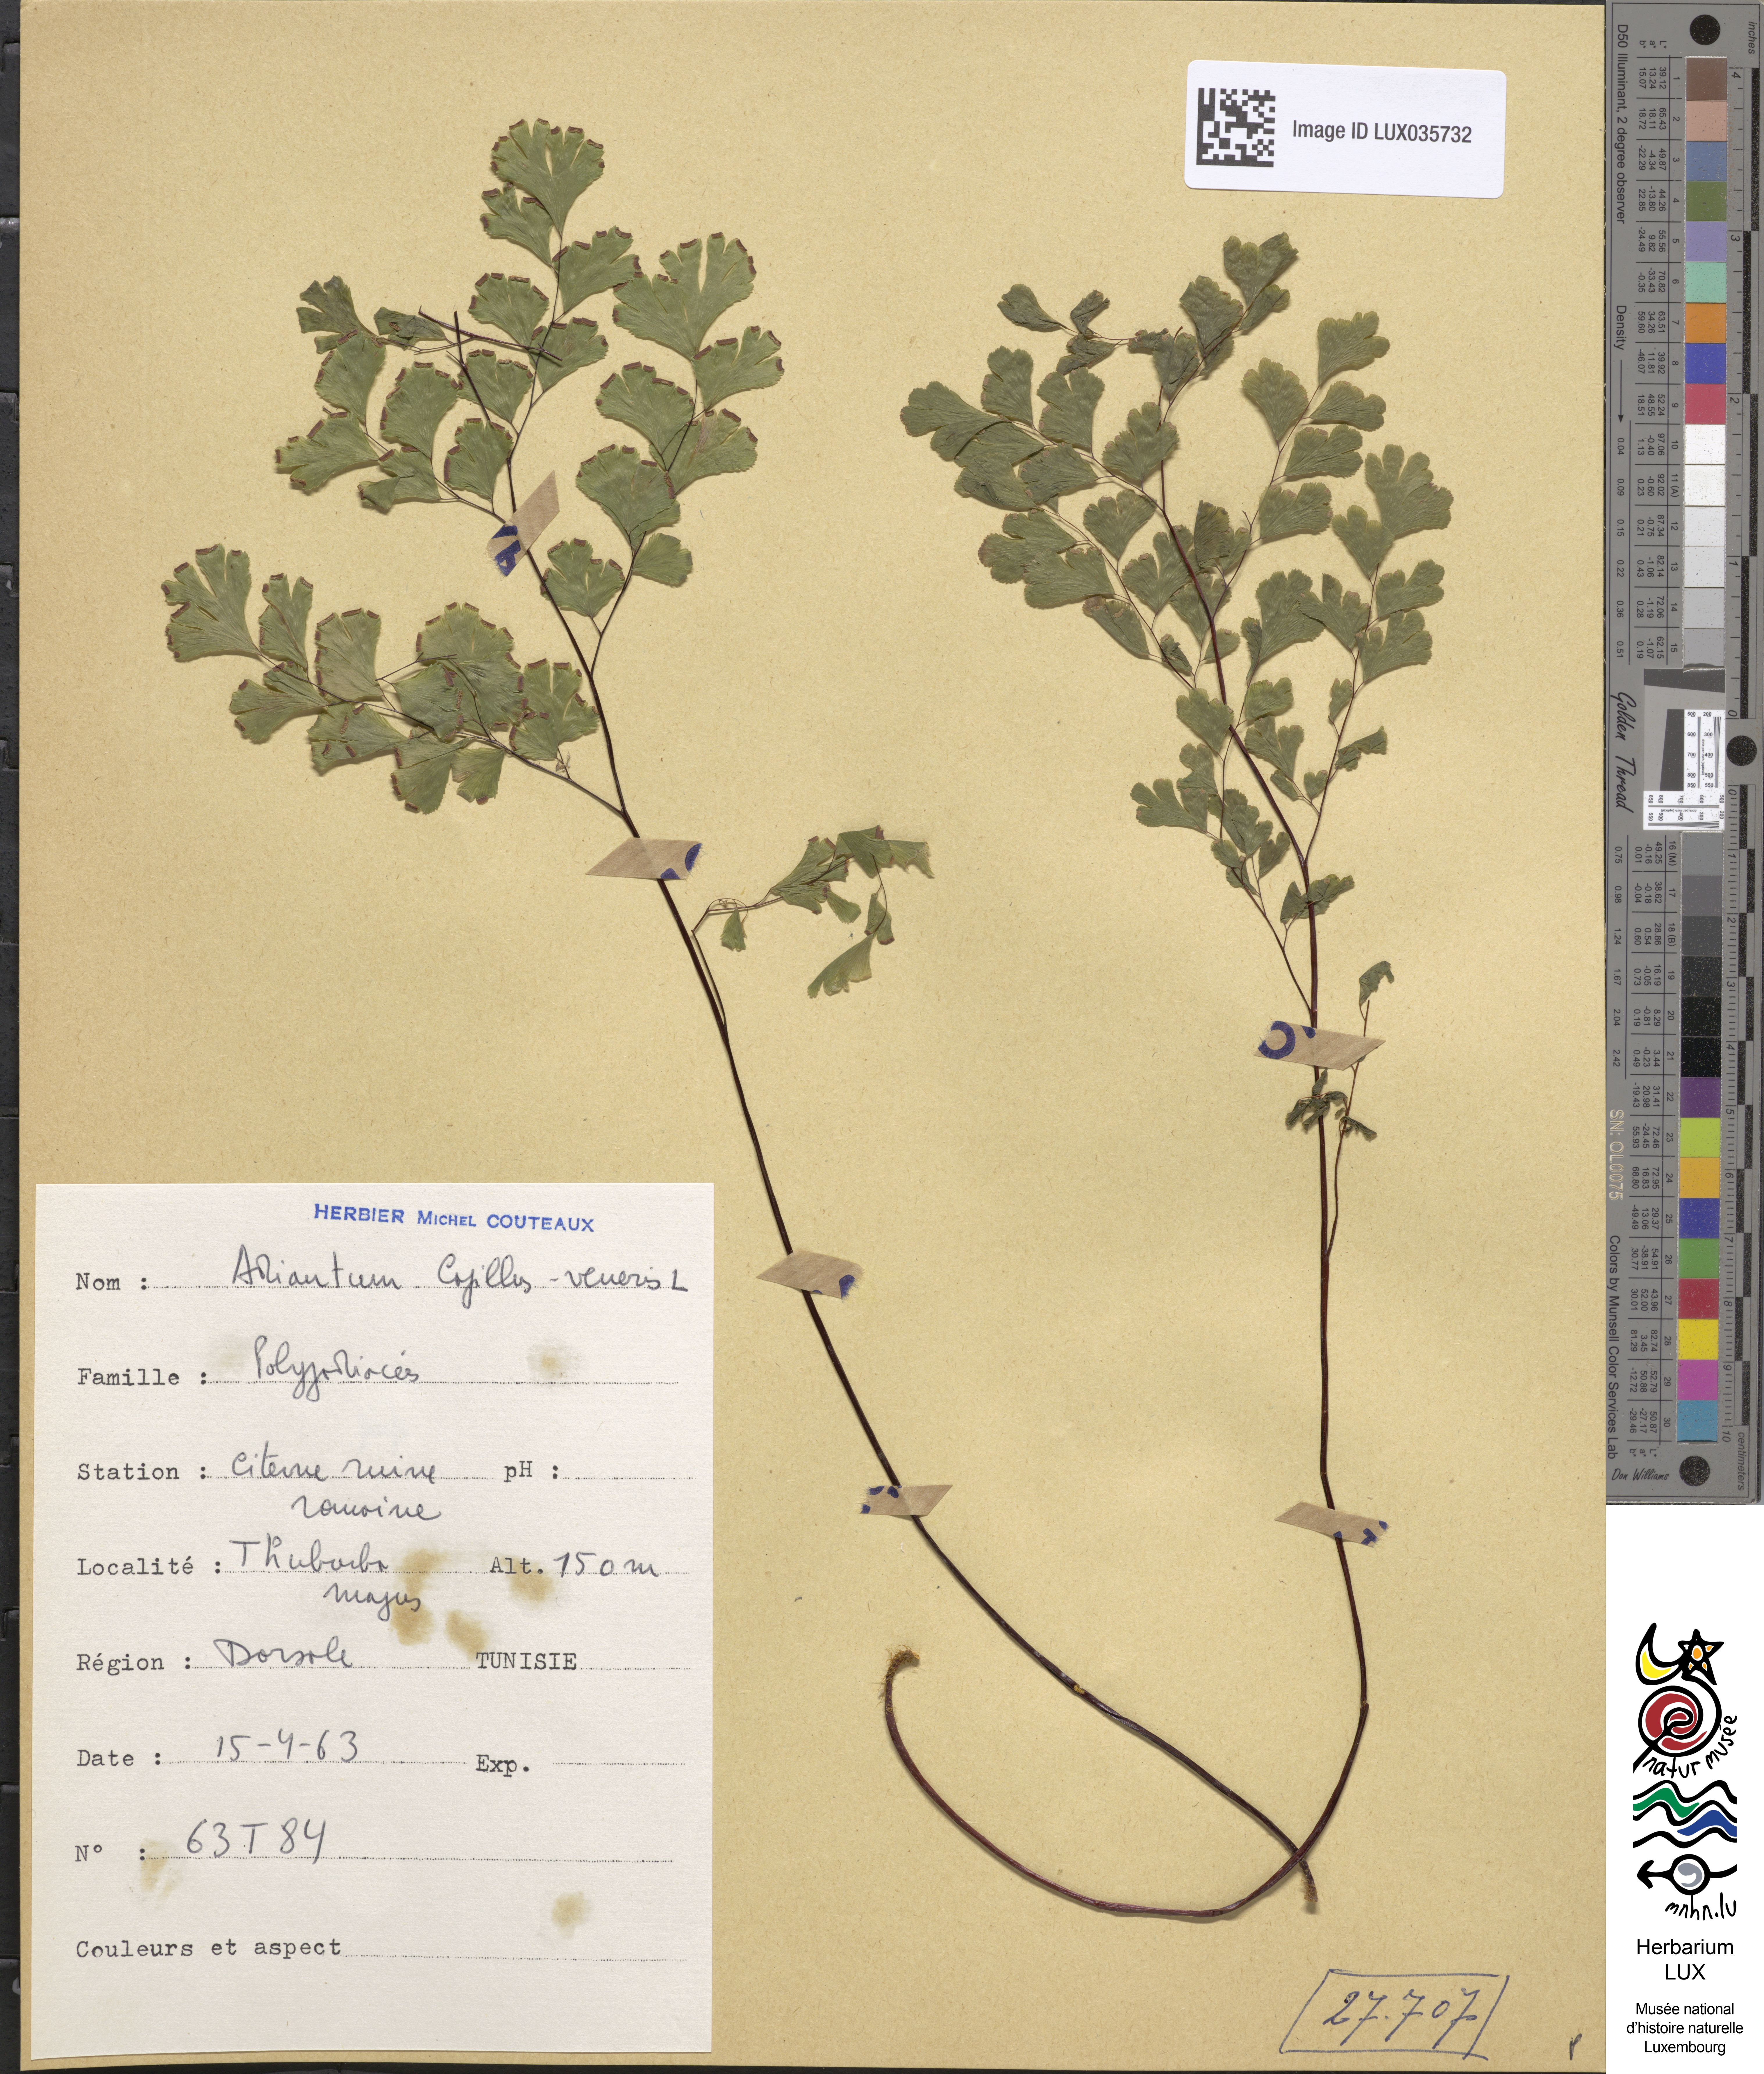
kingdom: Plantae
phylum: Tracheophyta
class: Polypodiopsida
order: Polypodiales
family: Pteridaceae
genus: Adiantum
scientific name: Adiantum capillus-veneris
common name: Maidenhair fern
